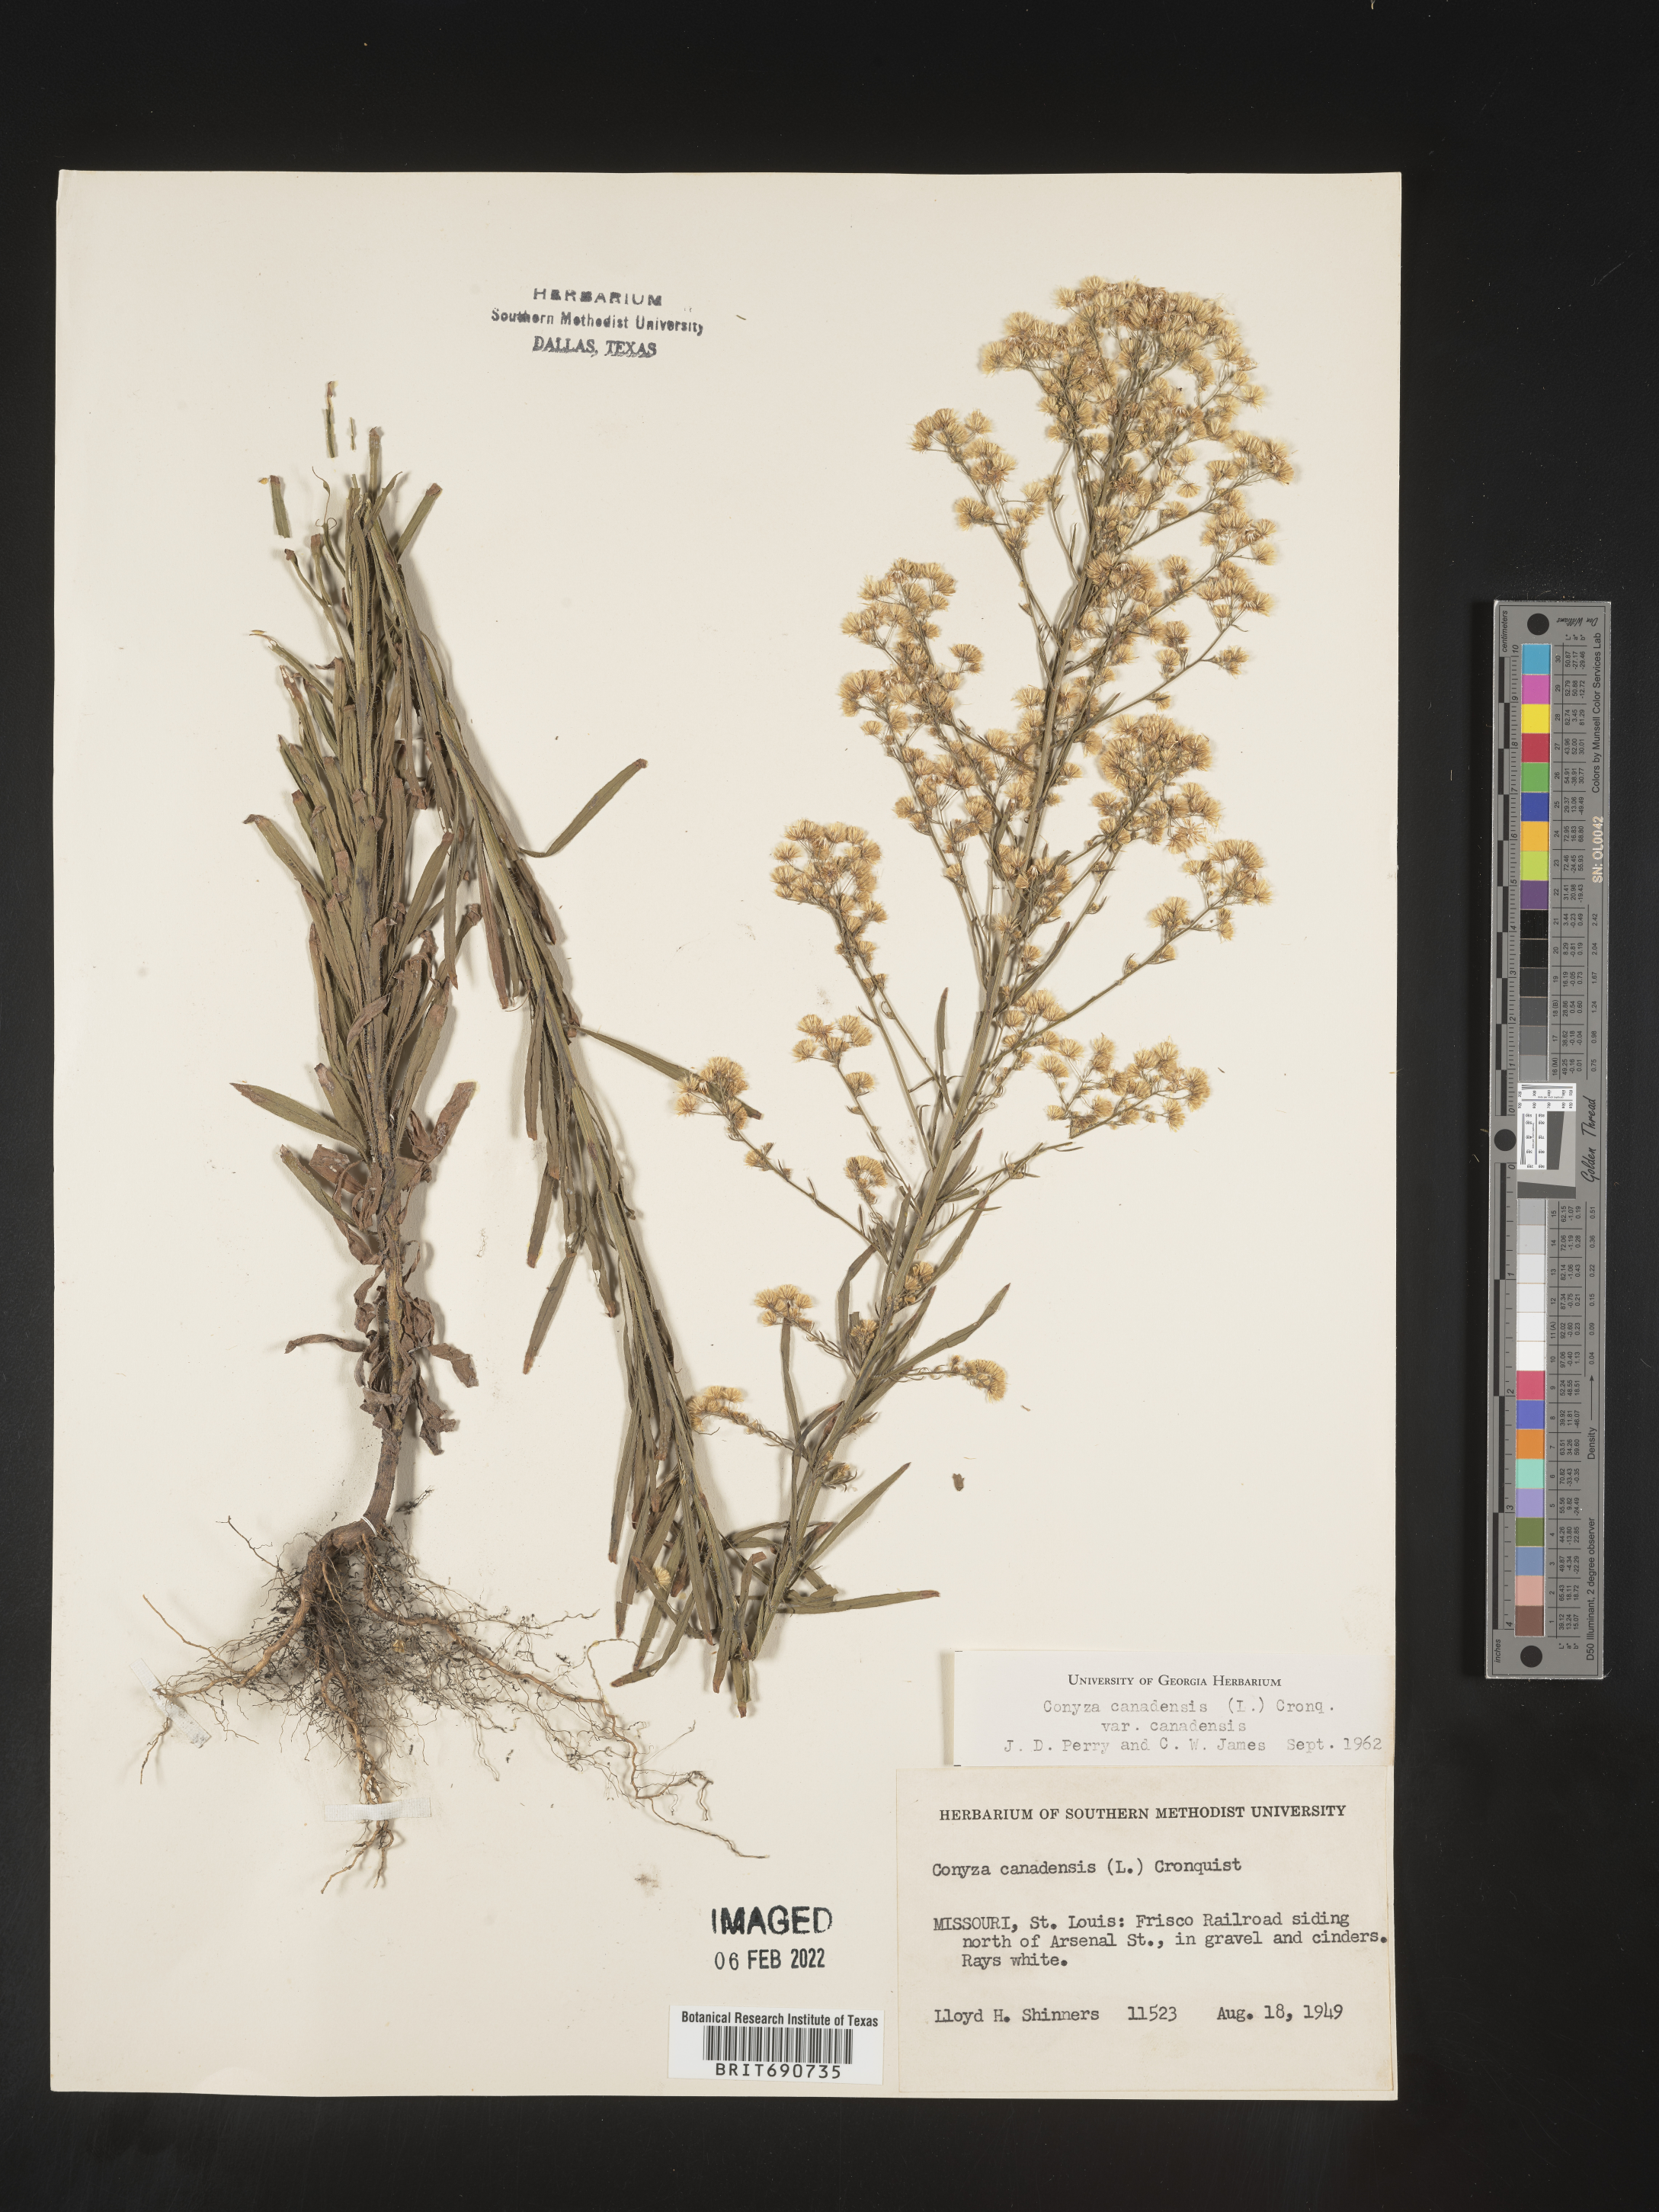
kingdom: Plantae
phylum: Tracheophyta
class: Magnoliopsida
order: Asterales
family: Asteraceae
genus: Erigeron
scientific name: Erigeron canadensis
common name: Canadian fleabane
